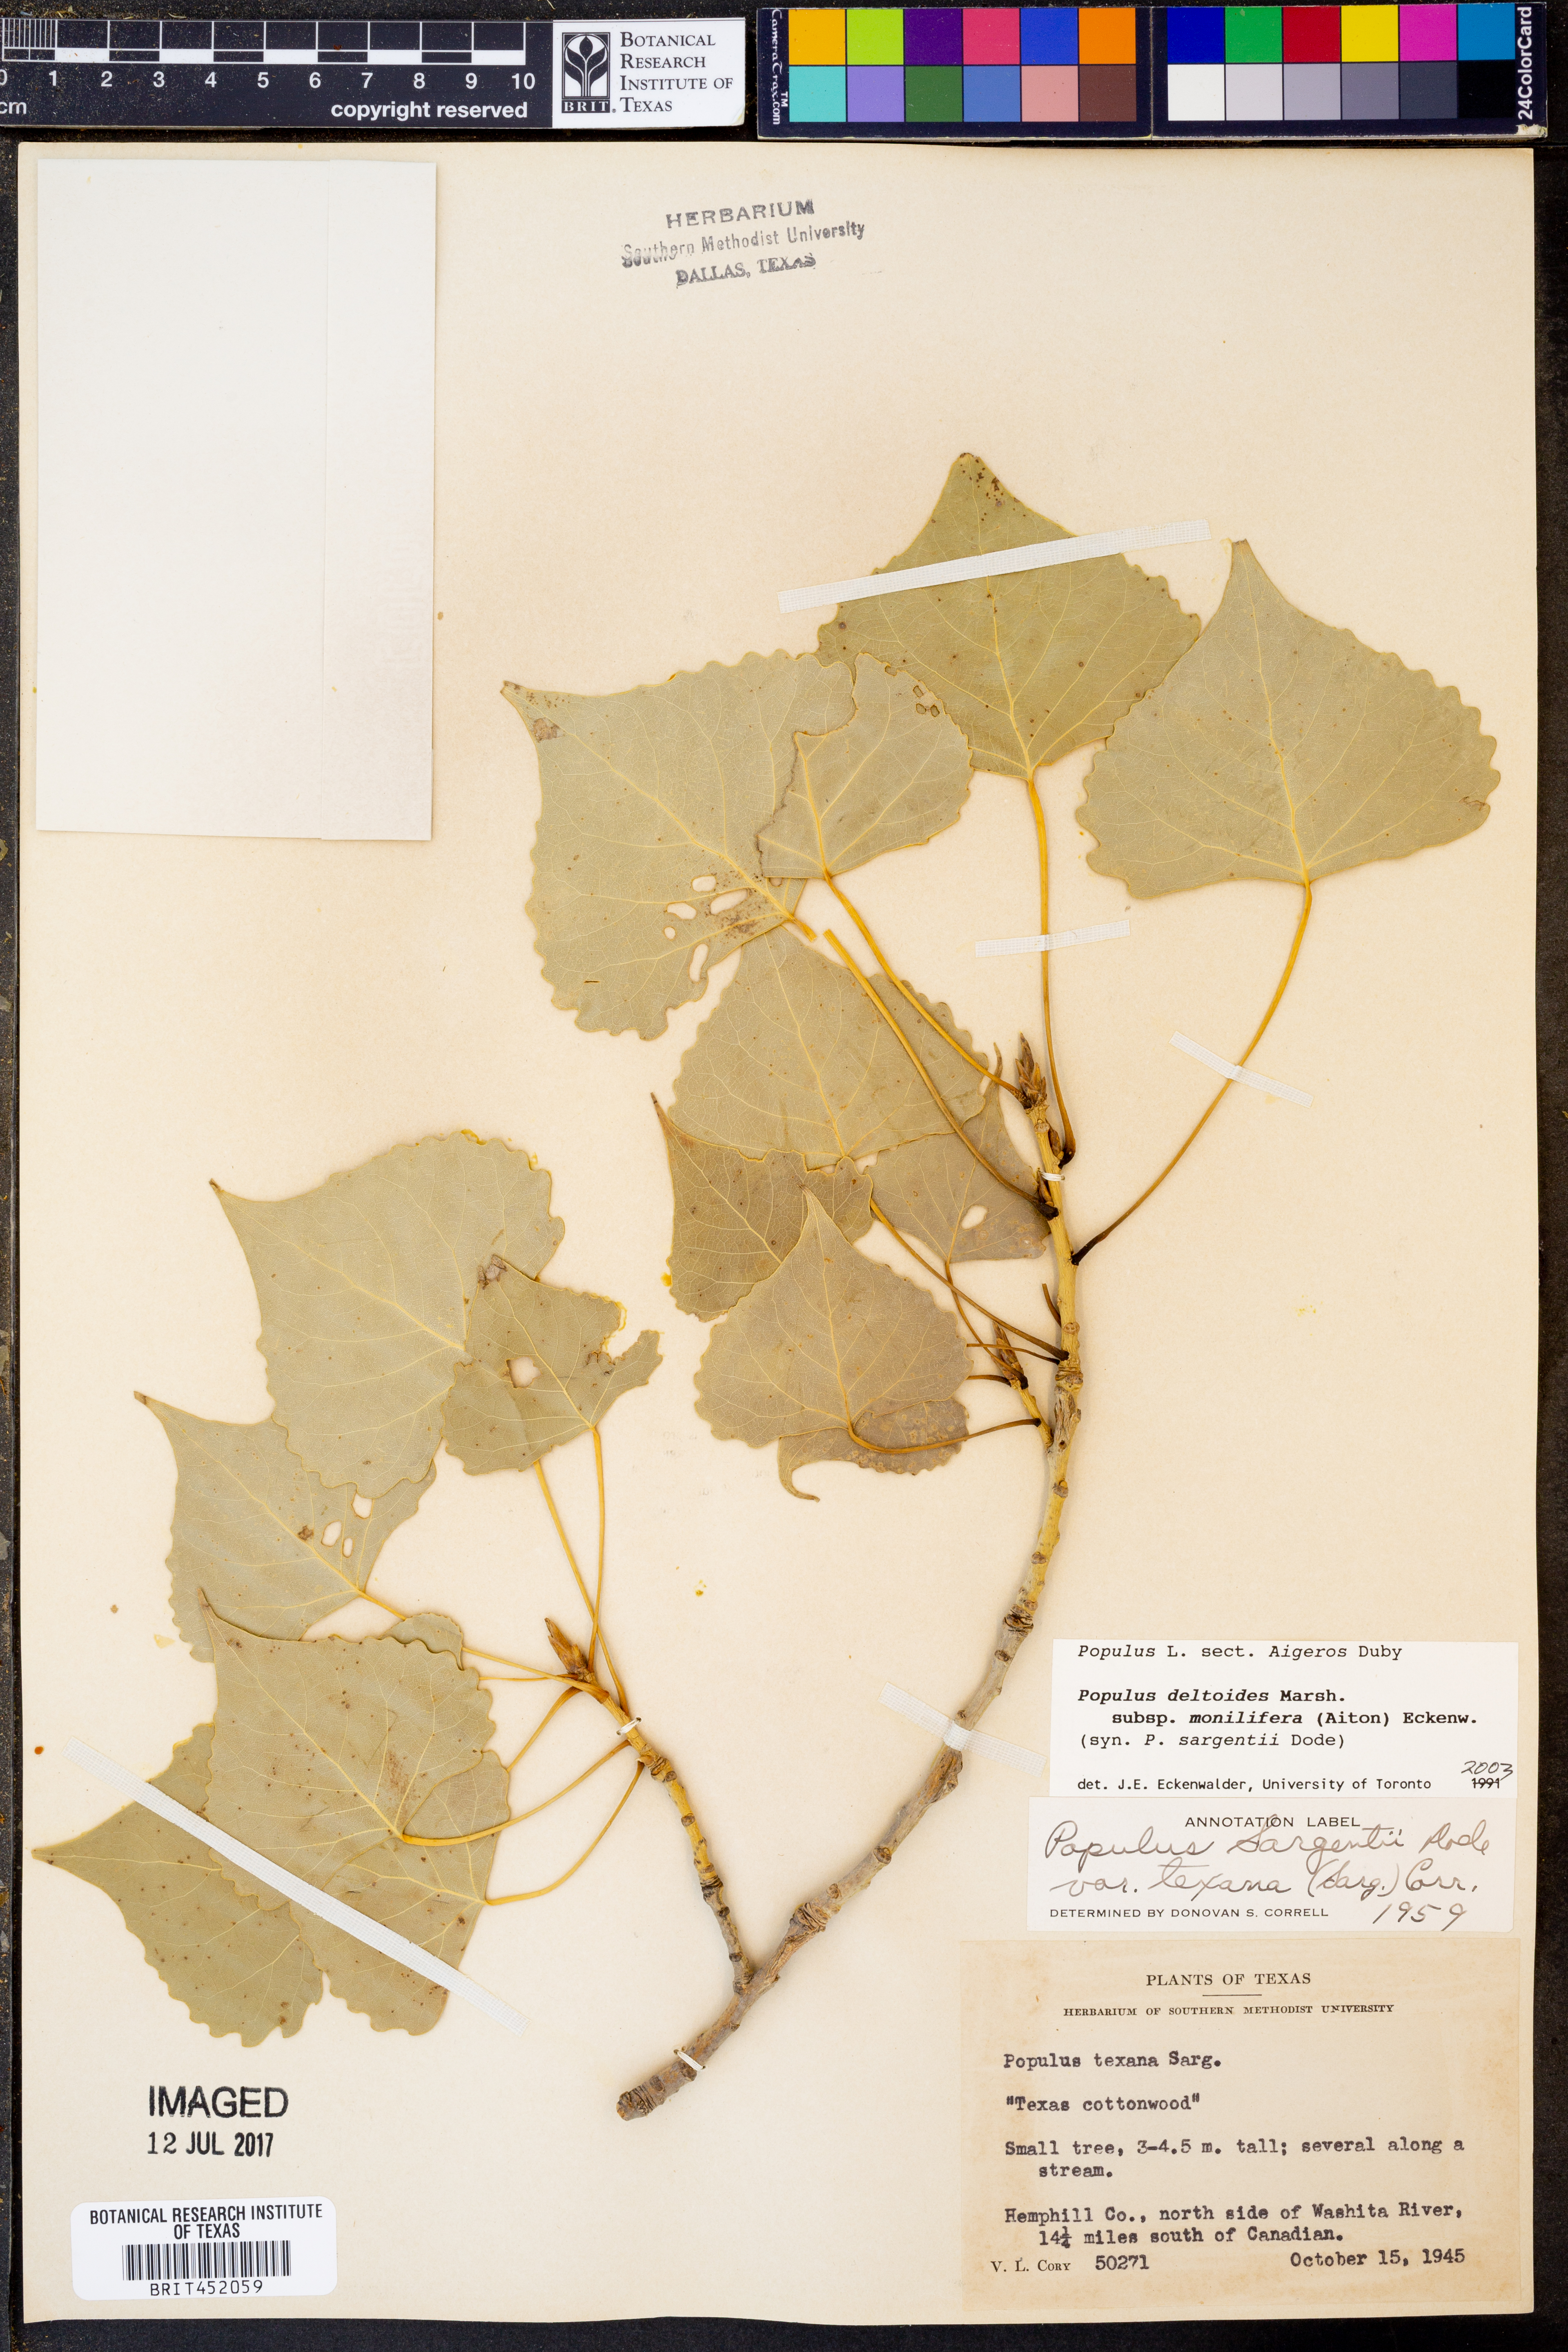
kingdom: Plantae
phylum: Tracheophyta
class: Magnoliopsida
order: Malpighiales
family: Salicaceae
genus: Populus
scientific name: Populus deltoides
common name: Eastern cottonwood
